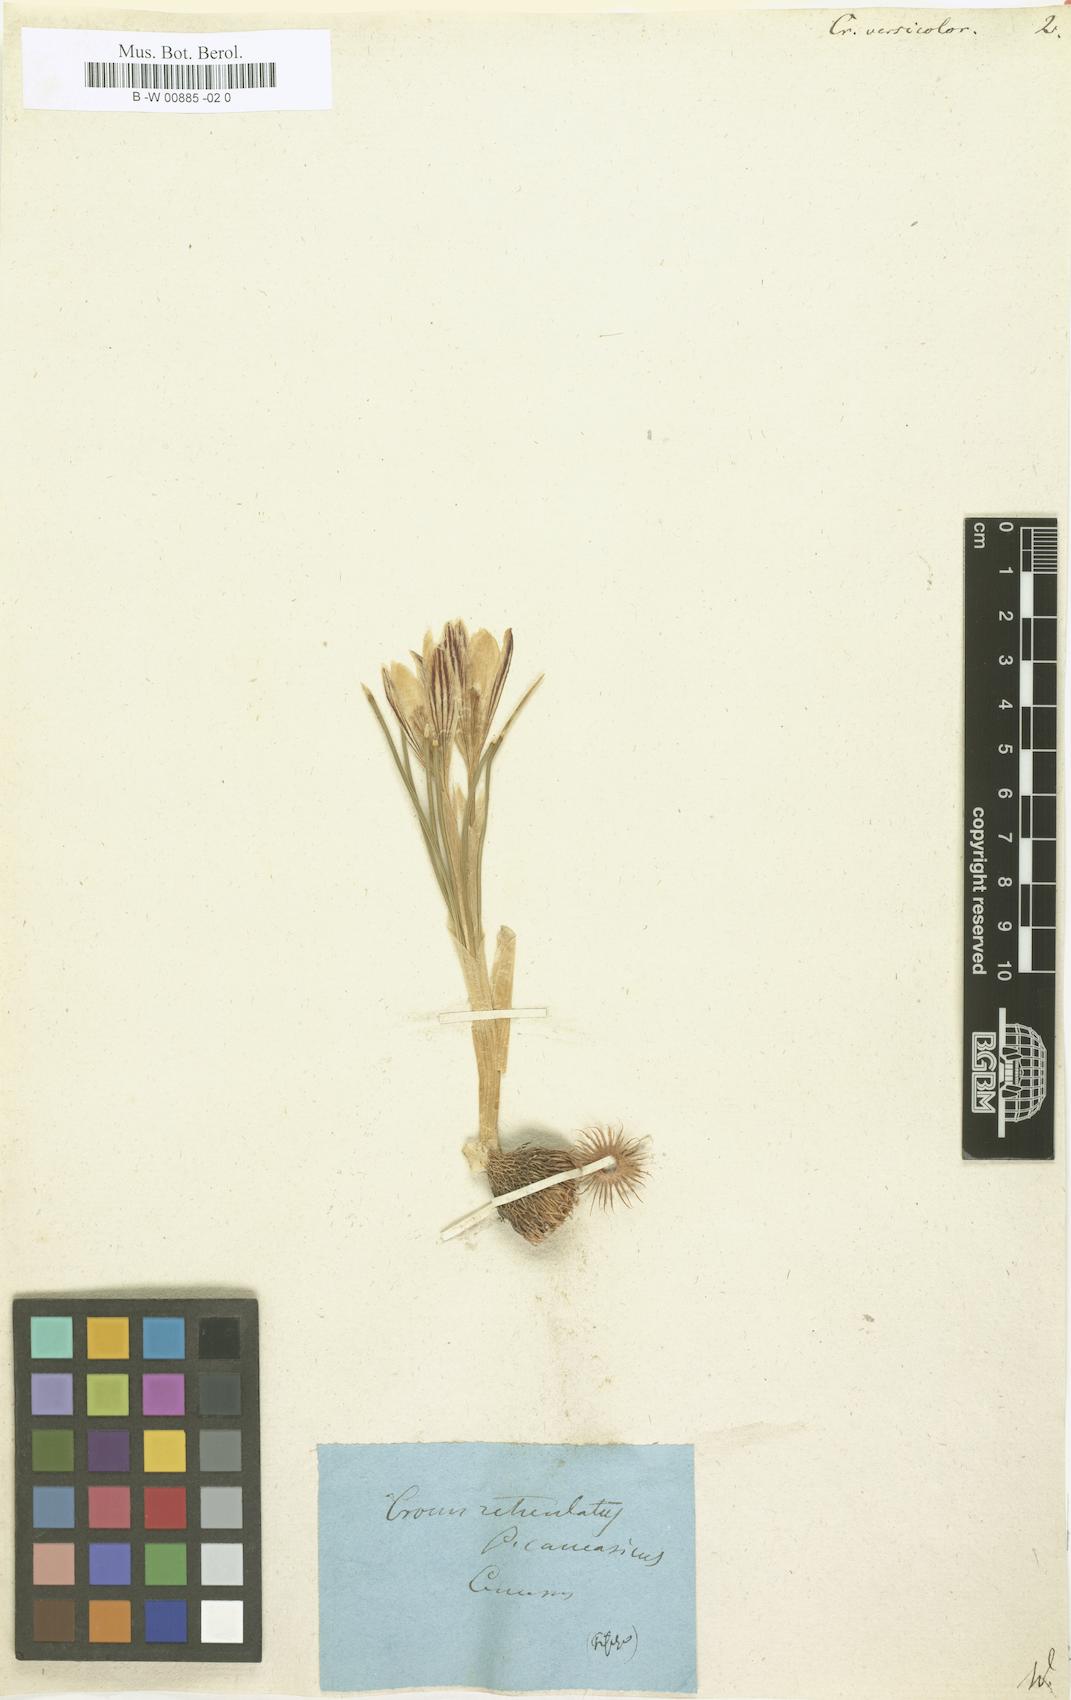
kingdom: Plantae
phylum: Tracheophyta
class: Liliopsida
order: Asparagales
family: Iridaceae
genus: Crocus
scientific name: Crocus versicolor
